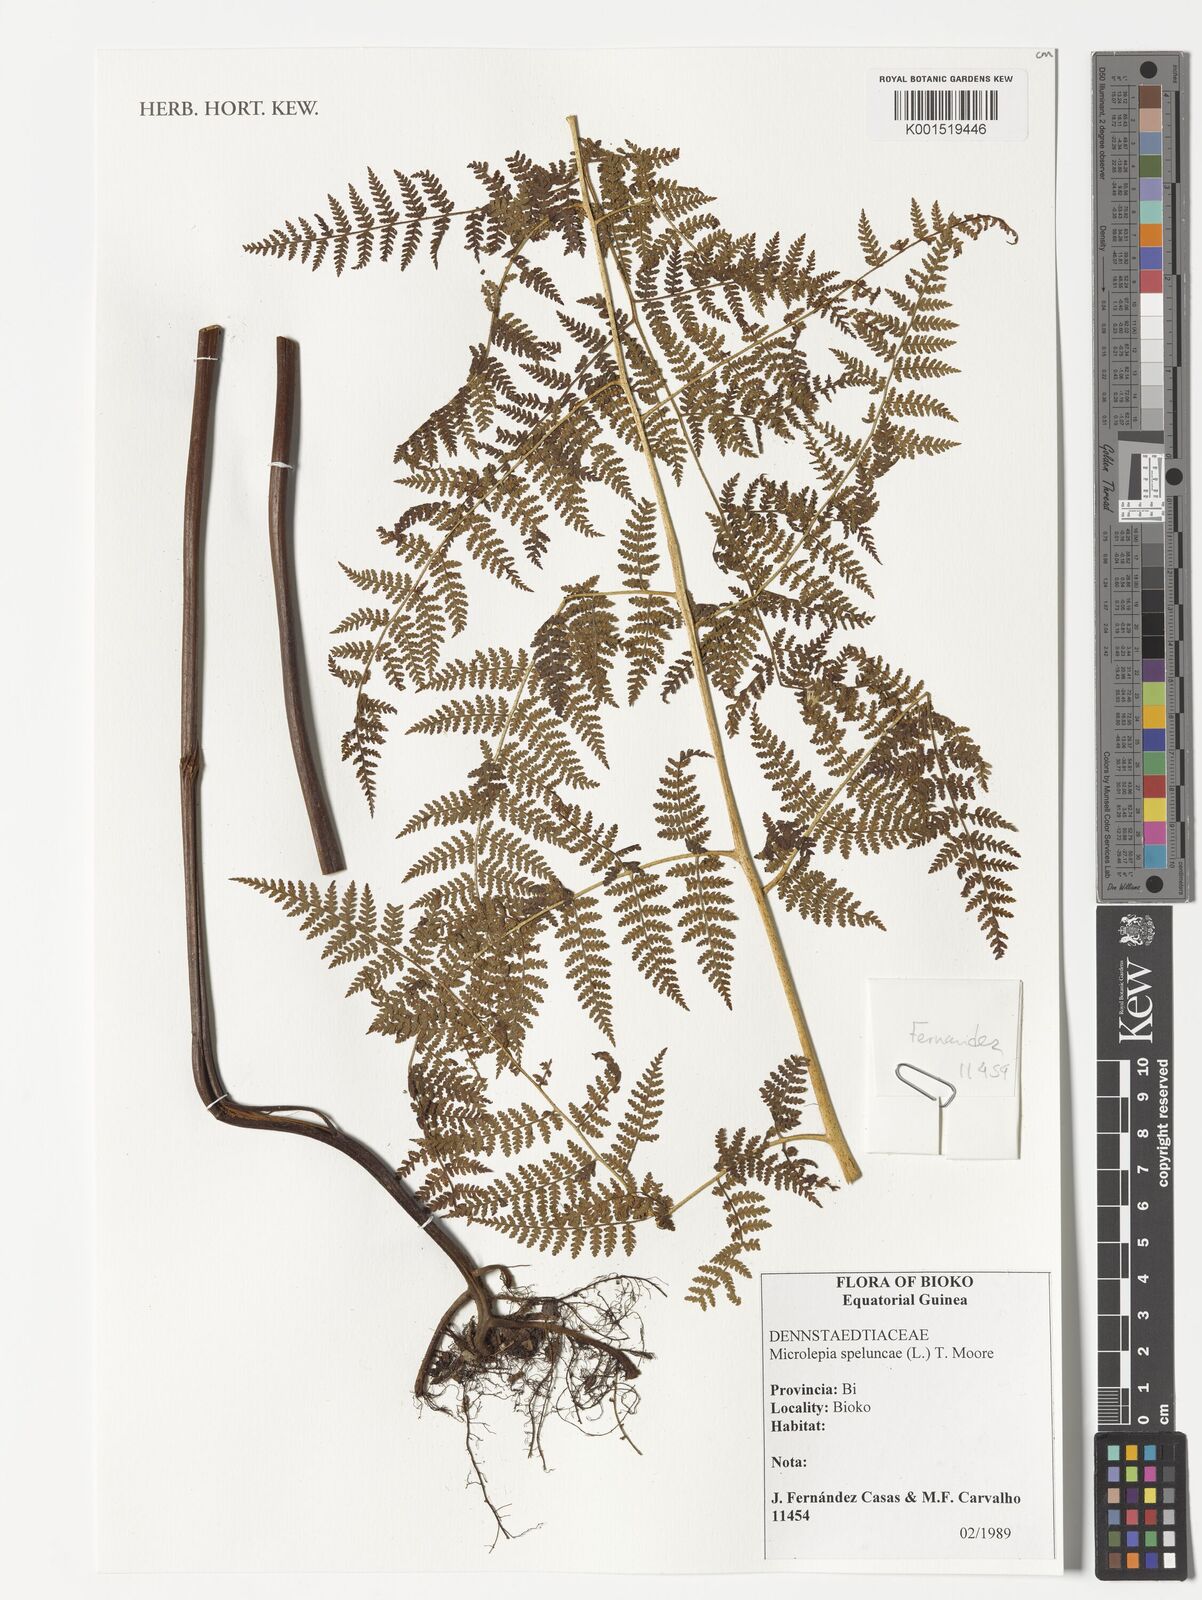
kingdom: Plantae
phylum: Tracheophyta
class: Polypodiopsida
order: Polypodiales
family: Dennstaedtiaceae
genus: Microlepia
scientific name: Microlepia speluncae
